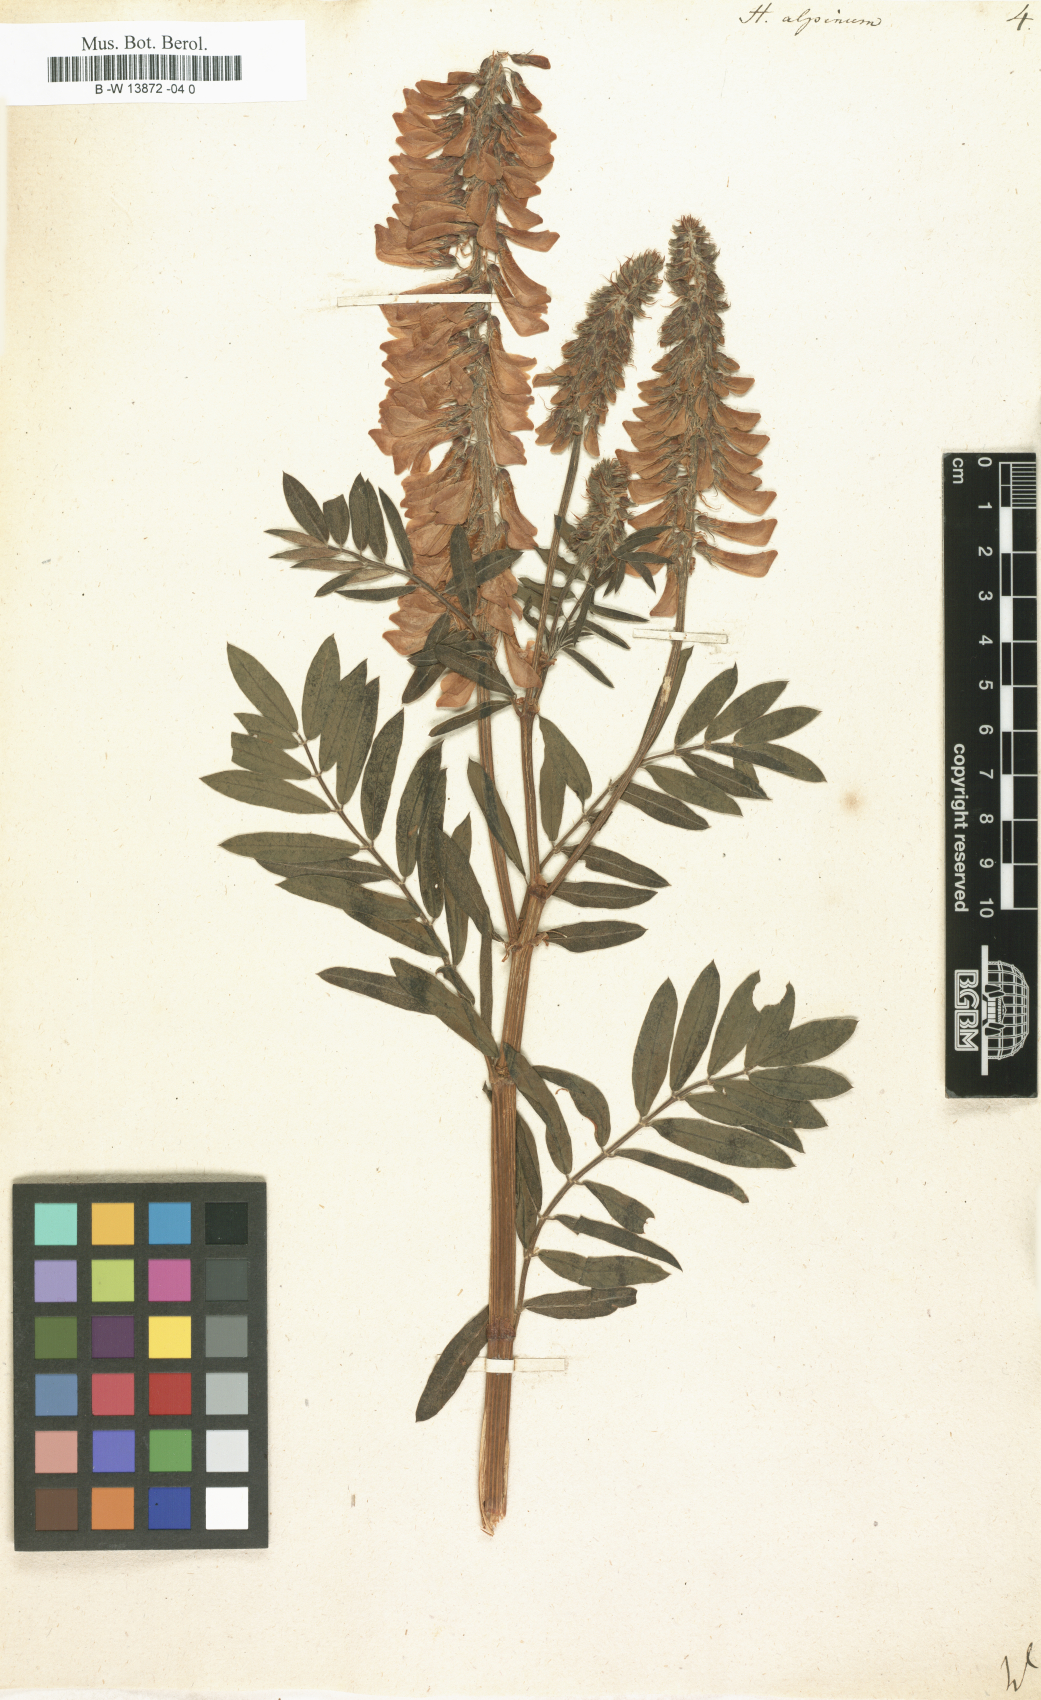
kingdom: Plantae
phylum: Tracheophyta
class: Magnoliopsida
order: Fabales
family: Fabaceae
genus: Hedysarum
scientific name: Hedysarum alpinum
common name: Alpine sweet-vetch
